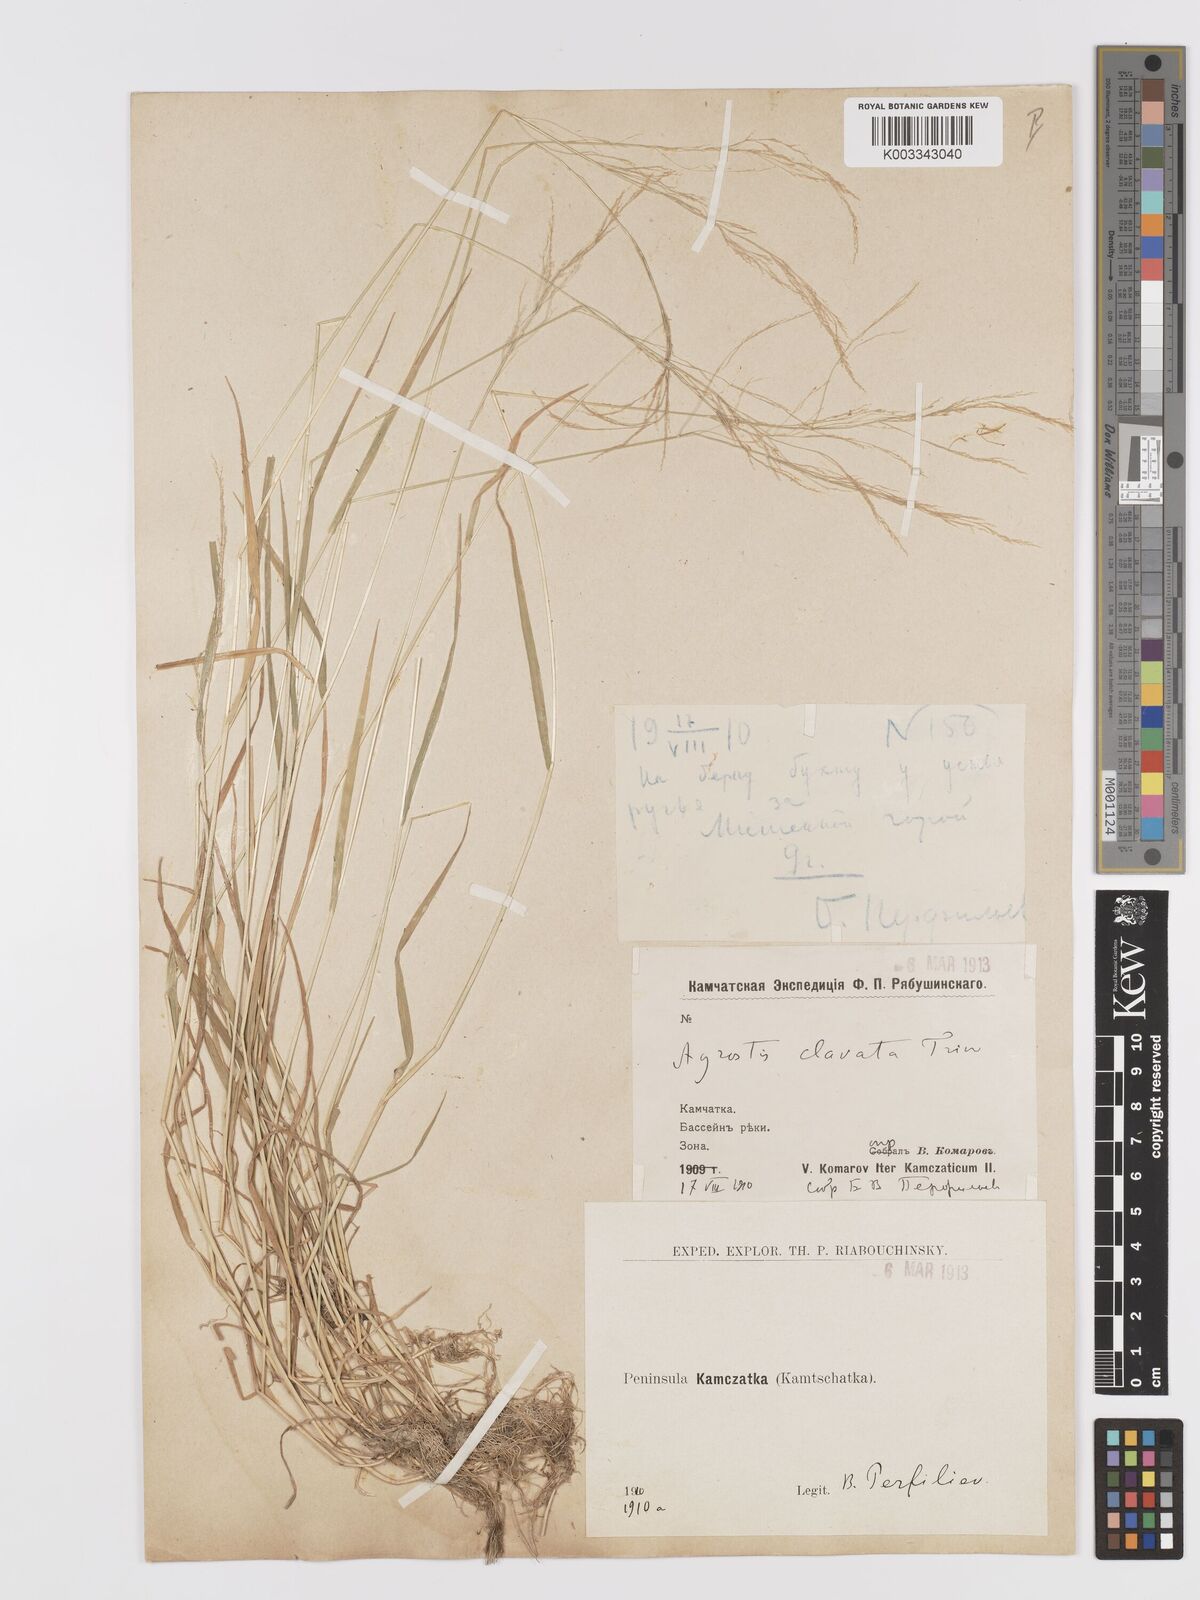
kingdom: Plantae
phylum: Tracheophyta
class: Liliopsida
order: Poales
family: Poaceae
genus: Agrostis
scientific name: Agrostis clavata
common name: Clavate bent
